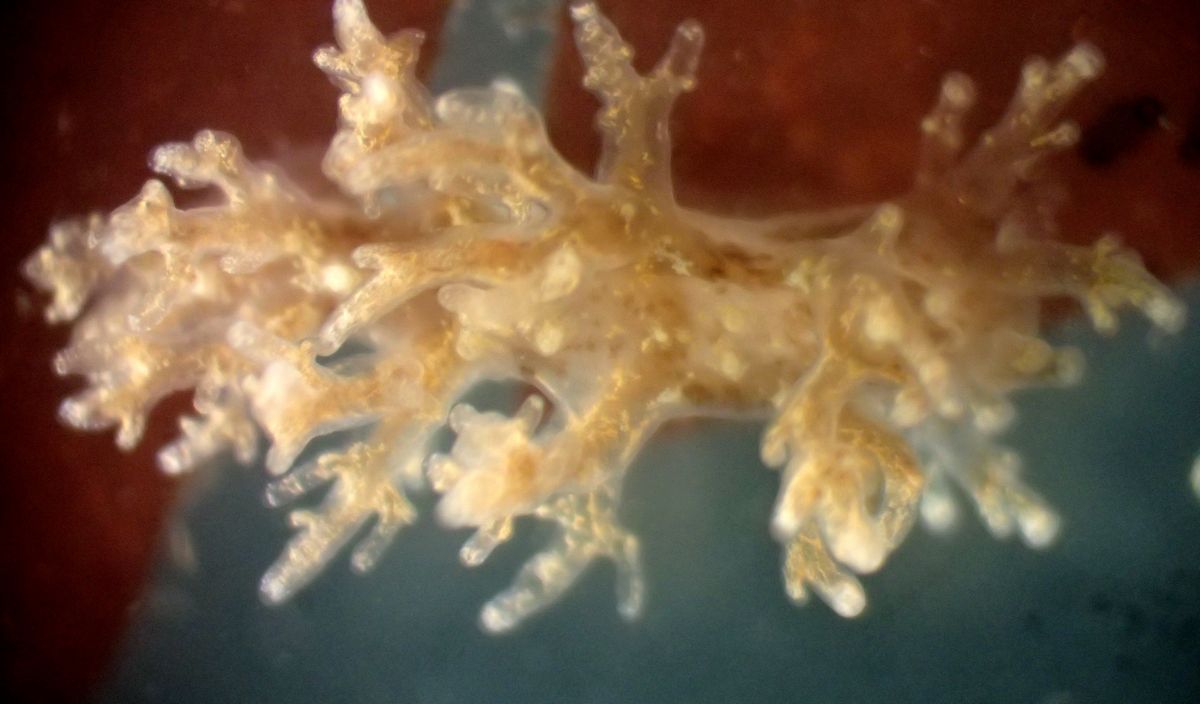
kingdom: Animalia
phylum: Mollusca
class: Gastropoda
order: Nudibranchia
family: Dendronotidae
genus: Dendronotus
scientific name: Dendronotus frondosus
